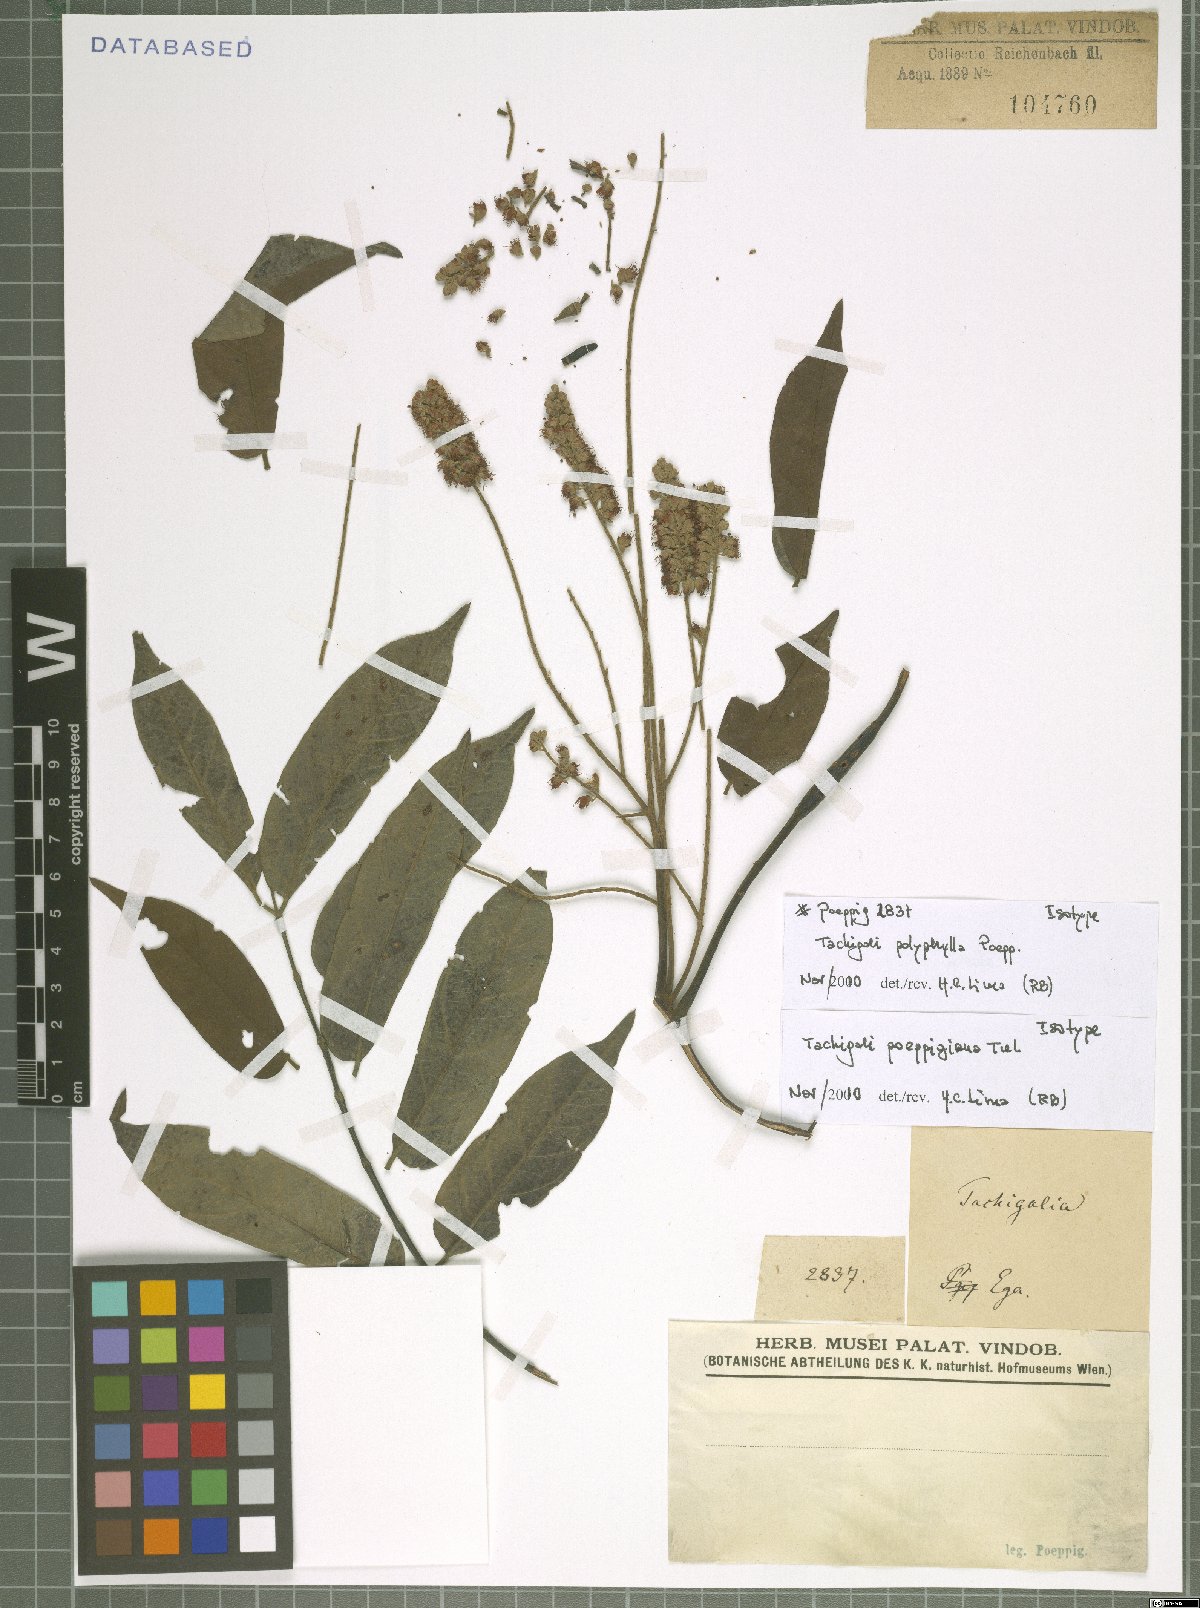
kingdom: Plantae
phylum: Tracheophyta
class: Magnoliopsida
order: Fabales
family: Fabaceae
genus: Tachigali
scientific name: Tachigali poeppigiana
